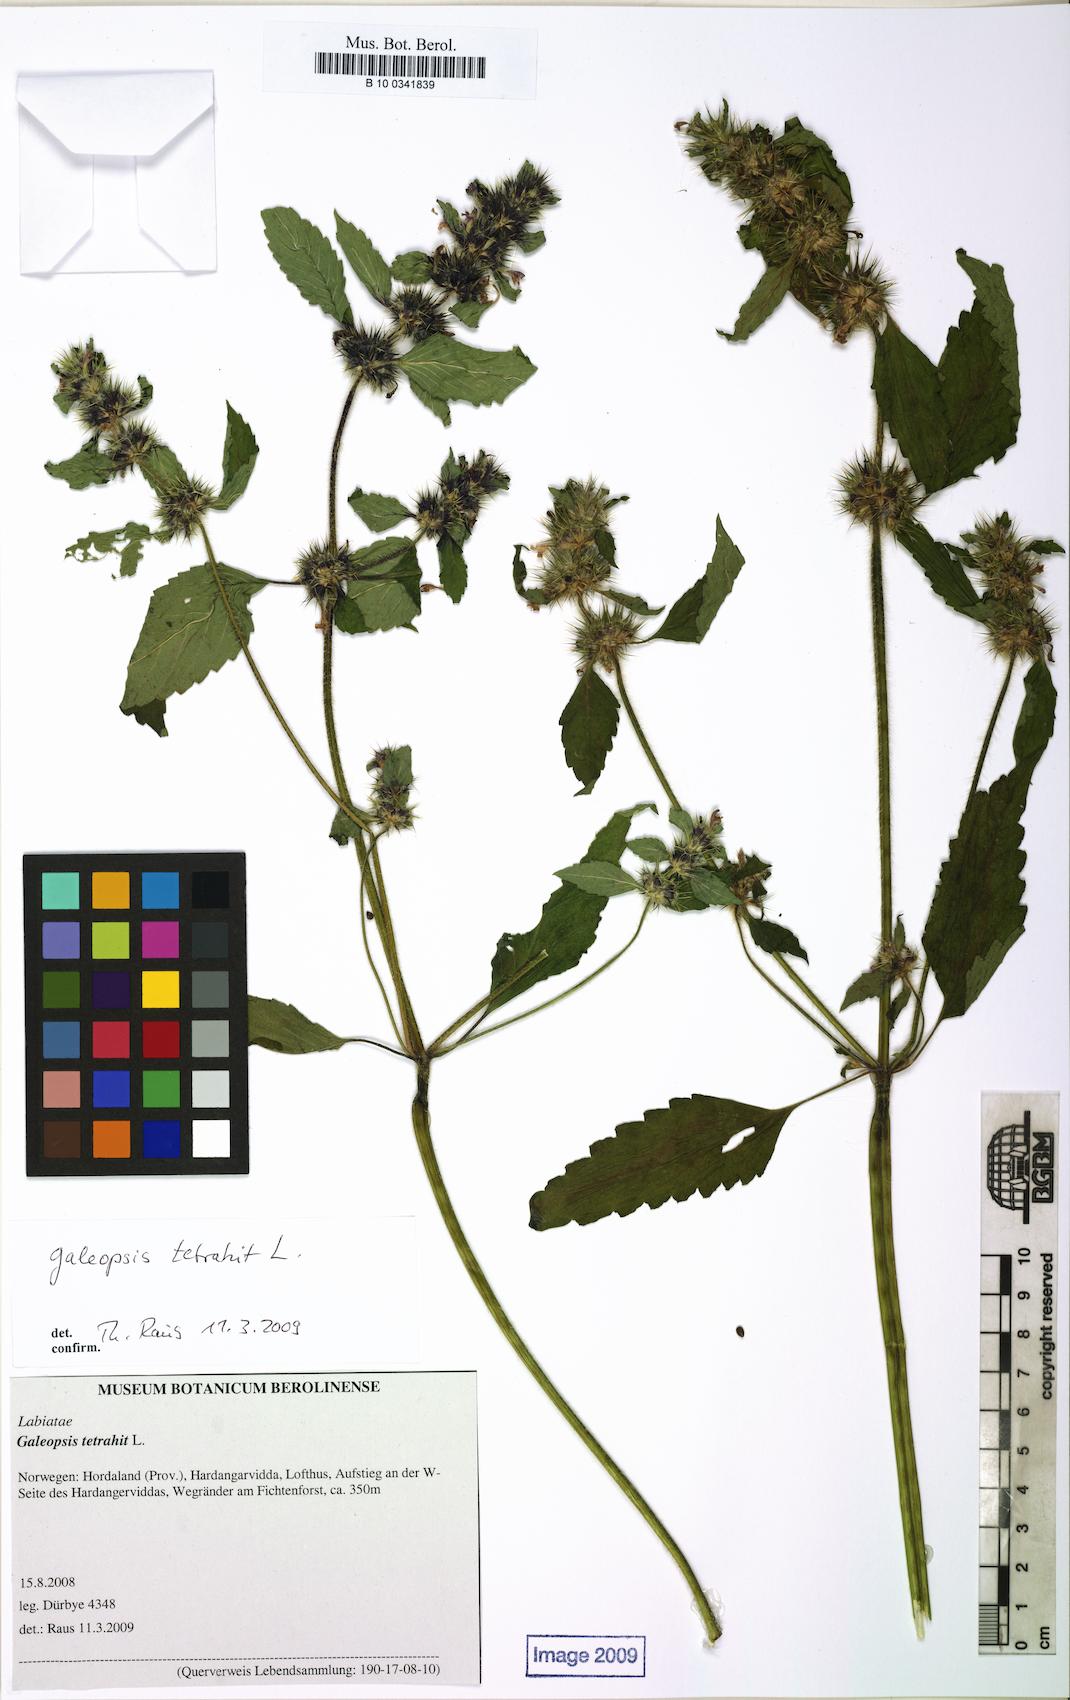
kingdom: Plantae
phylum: Tracheophyta
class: Magnoliopsida
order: Lamiales
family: Lamiaceae
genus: Galeopsis
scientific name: Galeopsis tetrahit
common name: Common hemp-nettle
